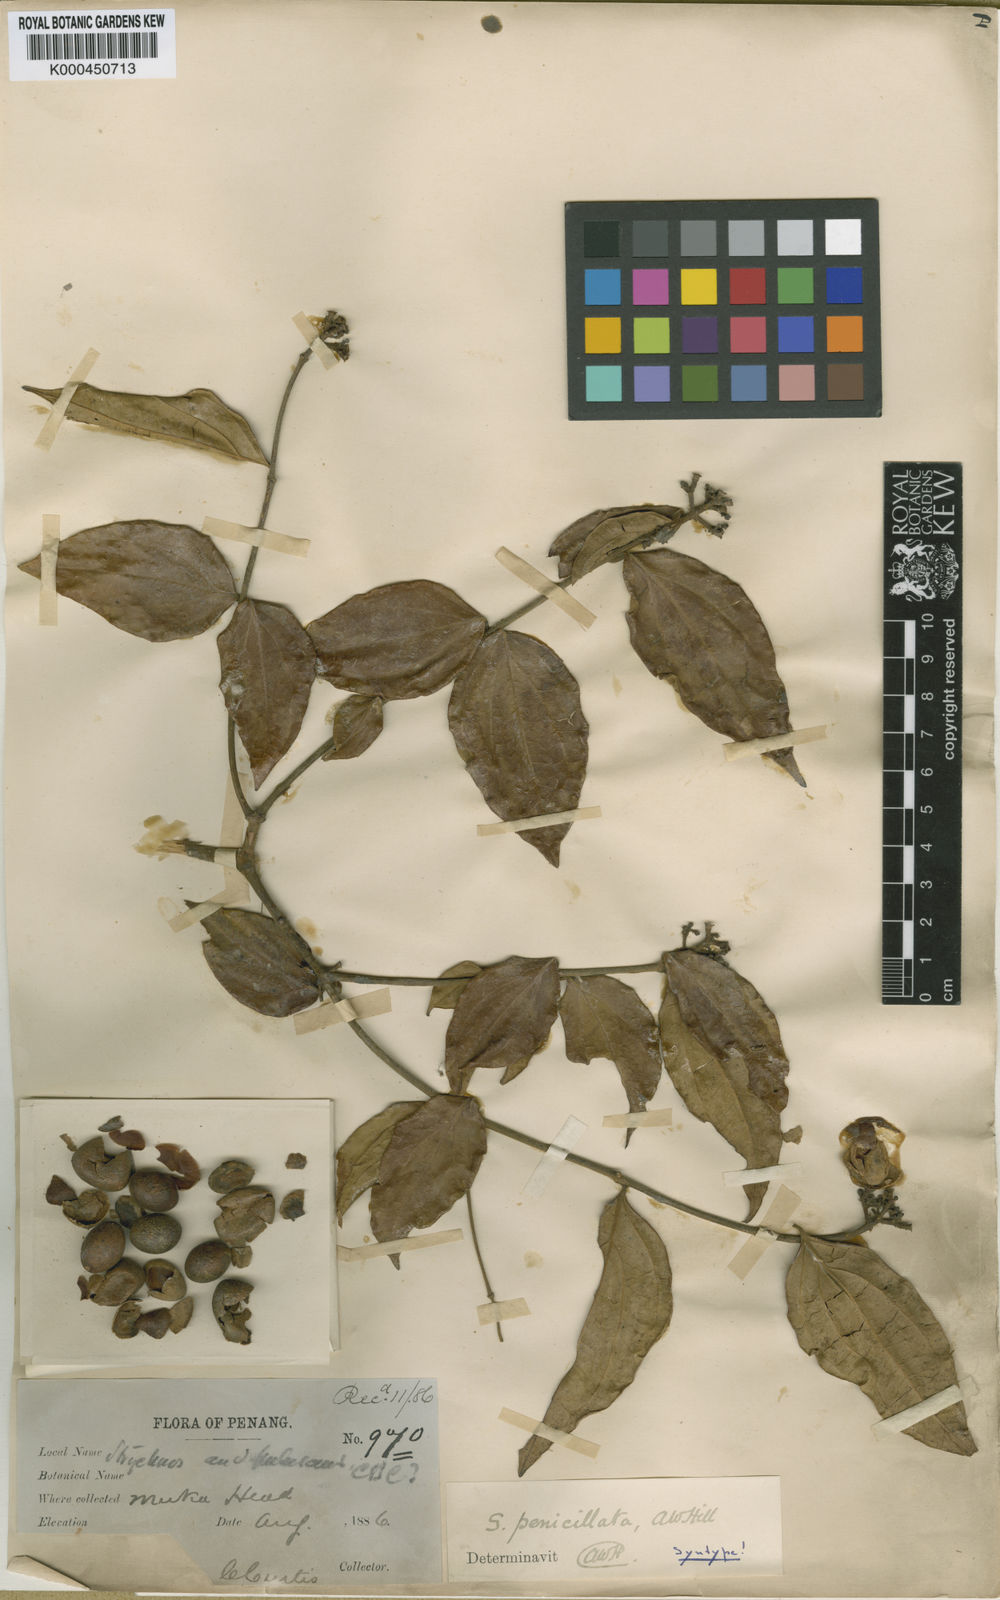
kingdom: Plantae
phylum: Tracheophyta
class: Magnoliopsida
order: Gentianales
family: Loganiaceae
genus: Strychnos
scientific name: Strychnos axillaris
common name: Strychninebush
